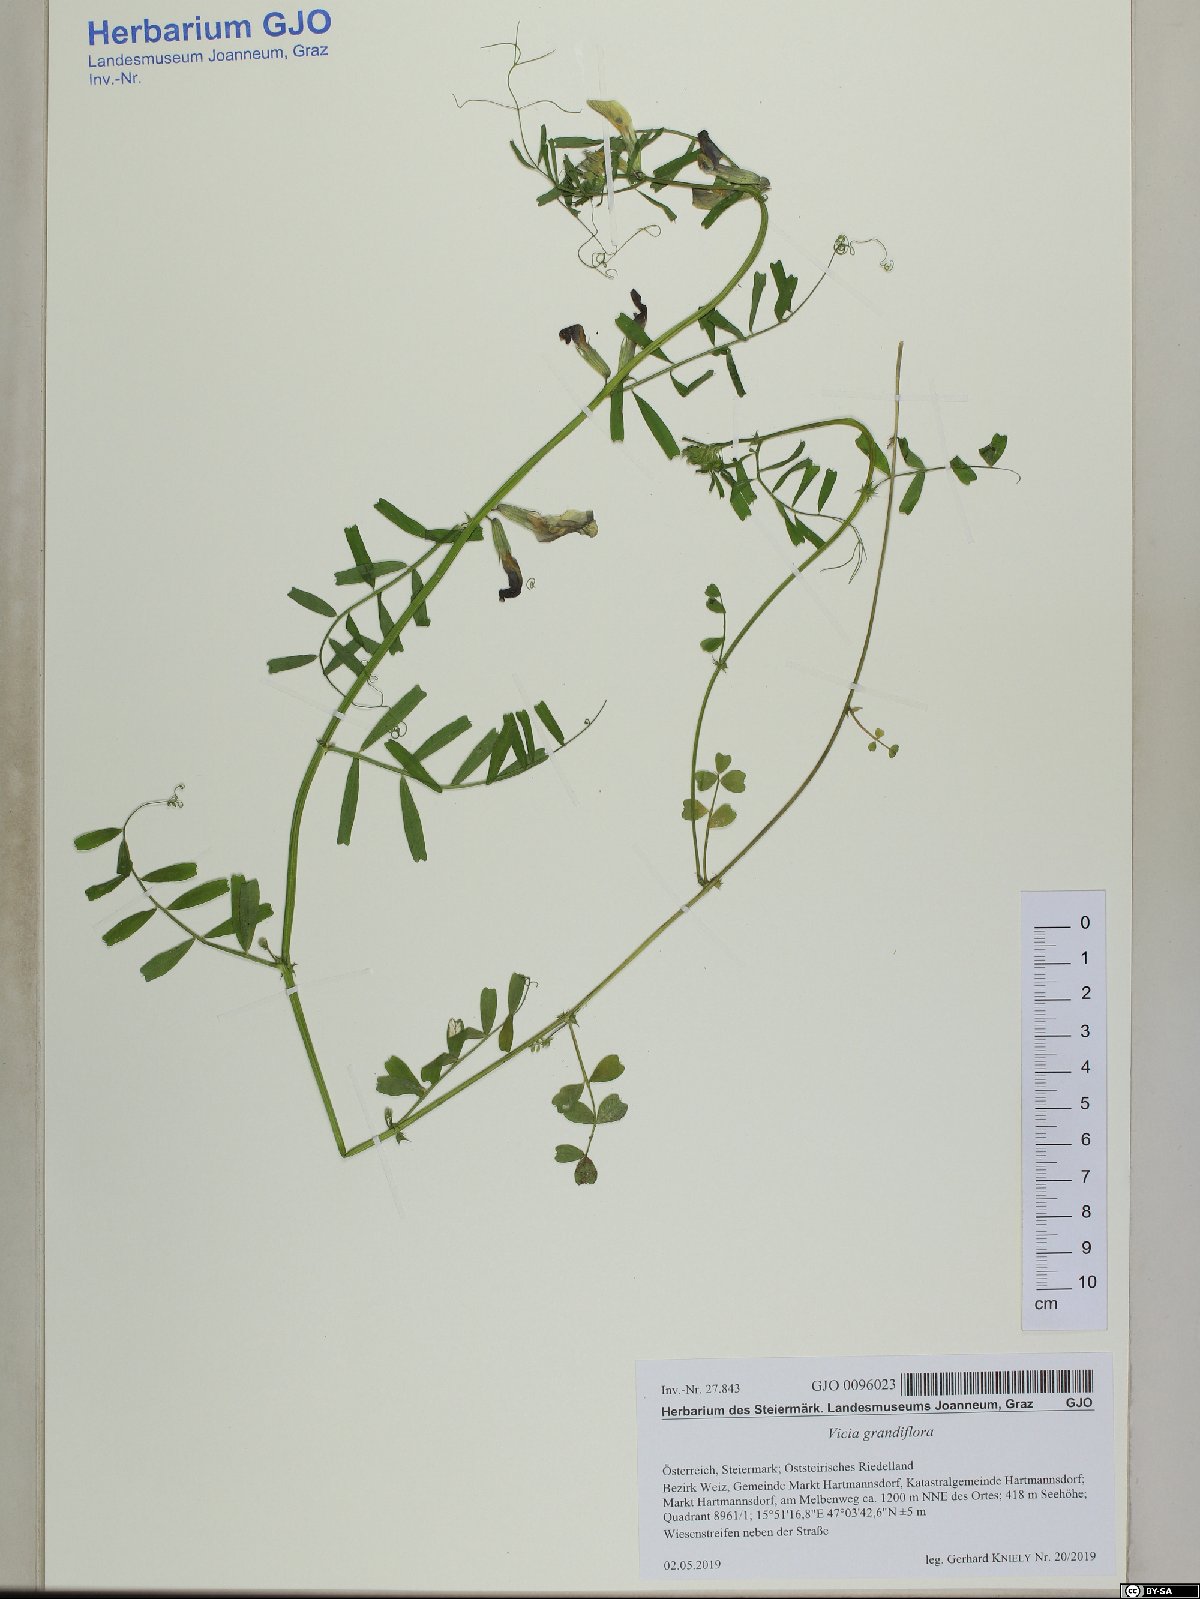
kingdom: Plantae
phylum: Tracheophyta
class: Magnoliopsida
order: Fabales
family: Fabaceae
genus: Vicia
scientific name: Vicia grandiflora
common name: Large yellow vetch
